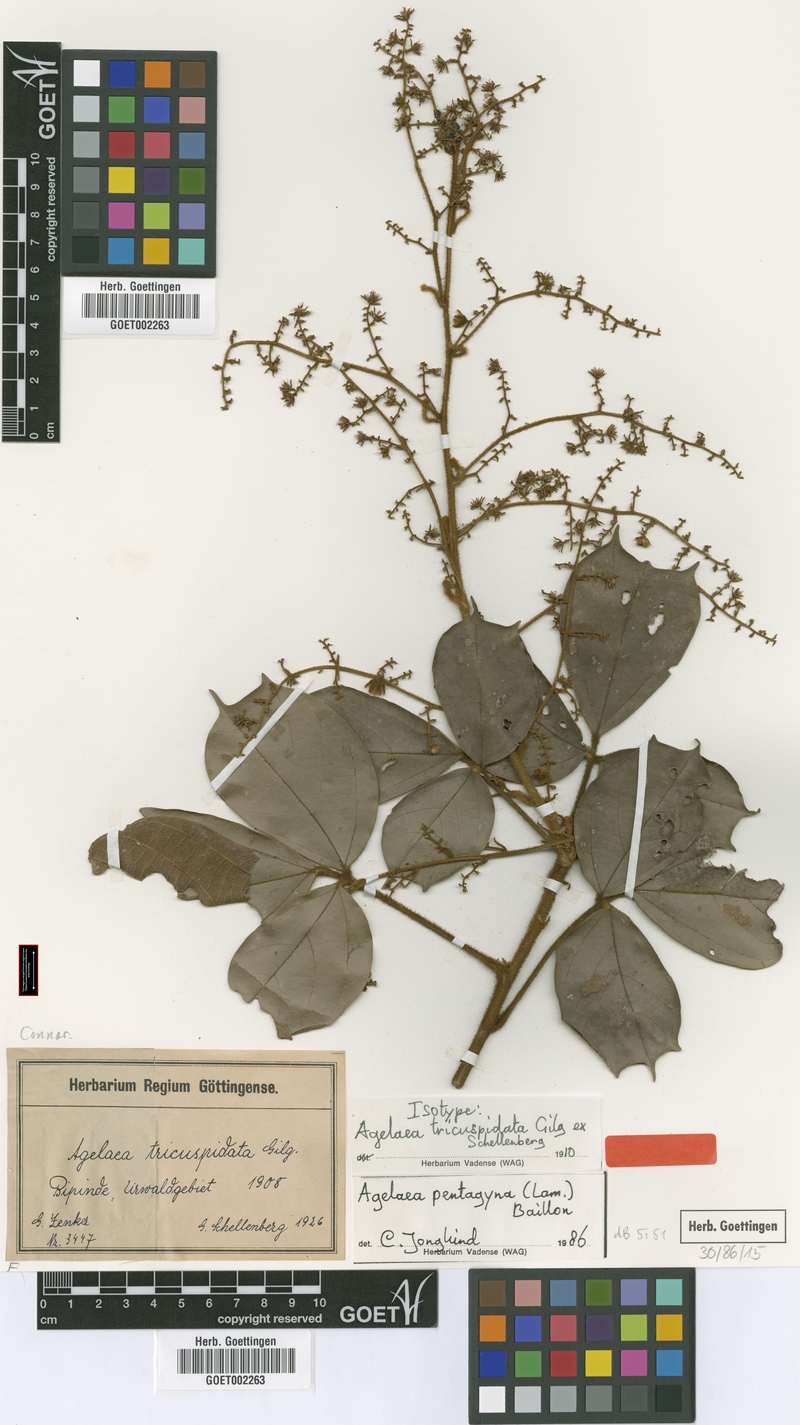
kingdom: Plantae
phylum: Tracheophyta
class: Magnoliopsida
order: Oxalidales
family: Connaraceae
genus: Agelaea
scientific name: Agelaea pentagyna
